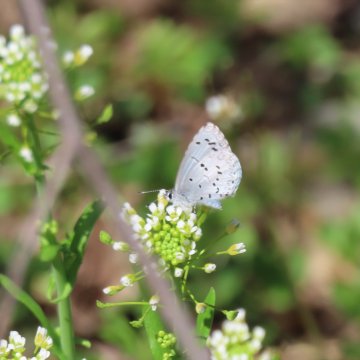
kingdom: Animalia
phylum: Arthropoda
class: Insecta
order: Lepidoptera
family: Lycaenidae
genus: Celastrina
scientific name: Celastrina
